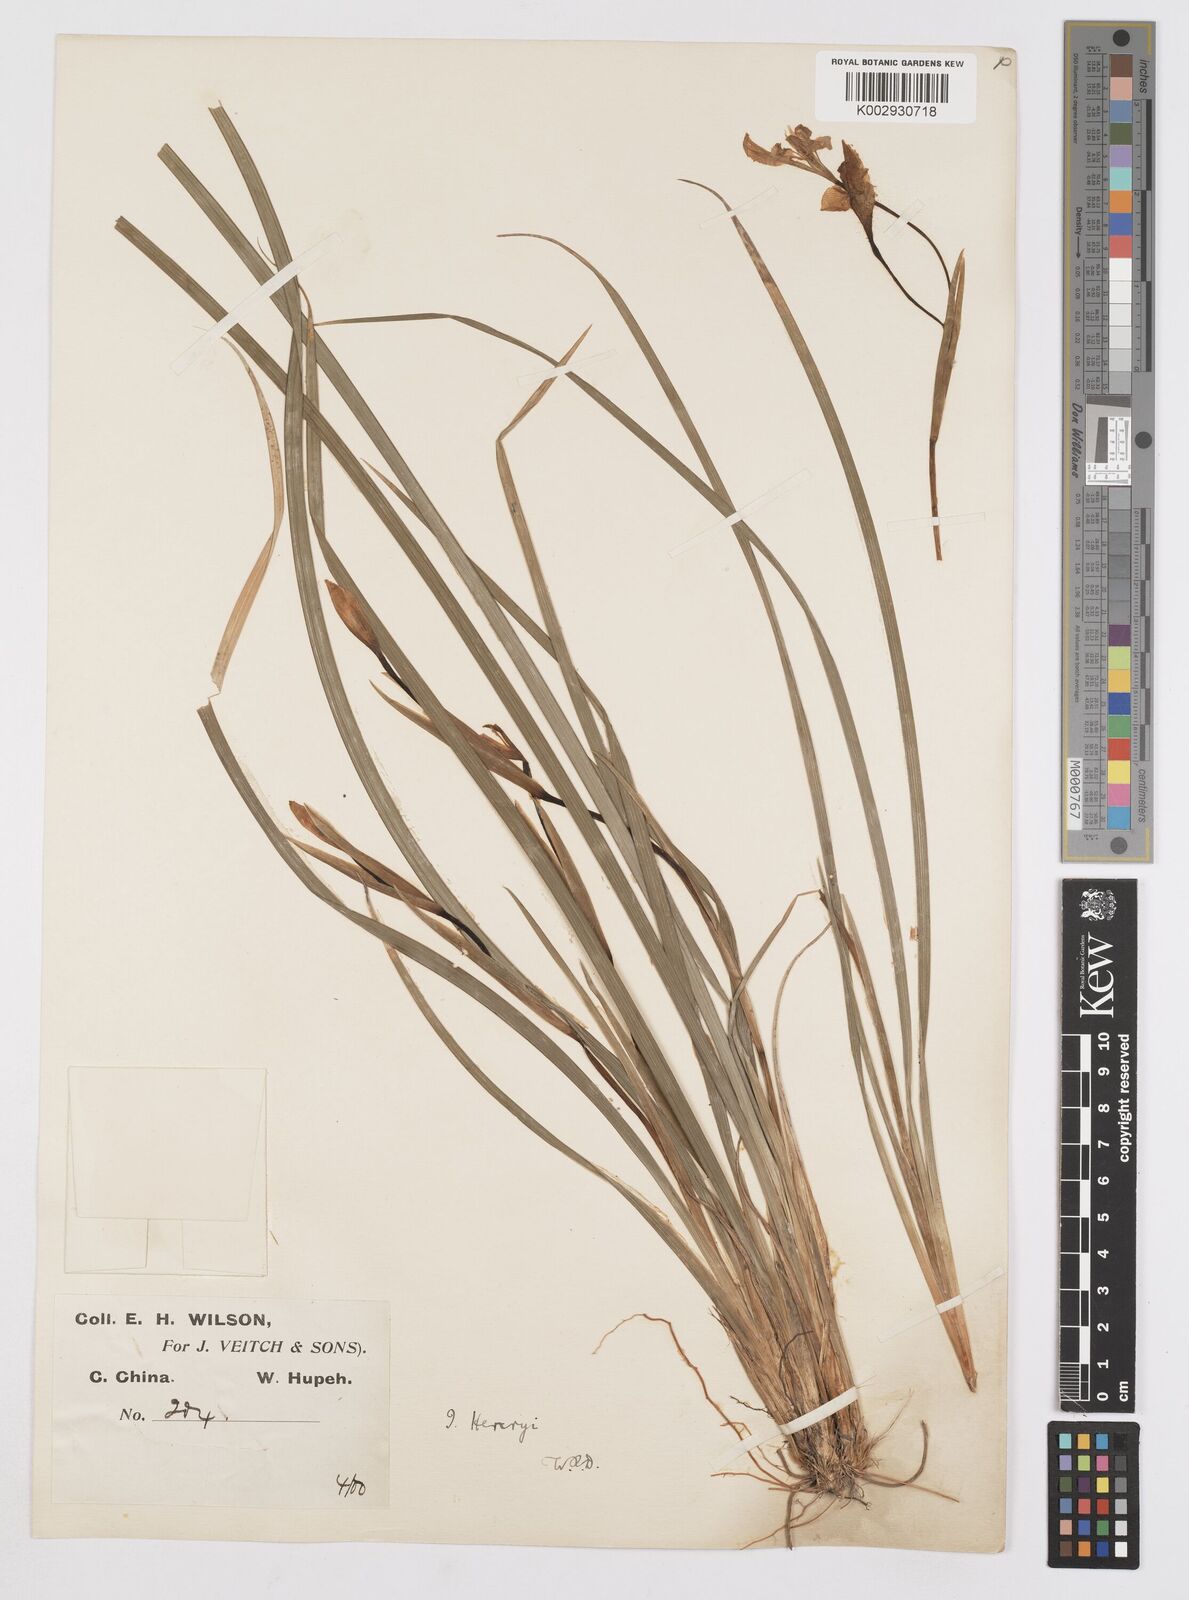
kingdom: Plantae
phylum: Tracheophyta
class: Liliopsida
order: Asparagales
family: Iridaceae
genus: Iris
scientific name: Iris henryi
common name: Long-pedicel iris
